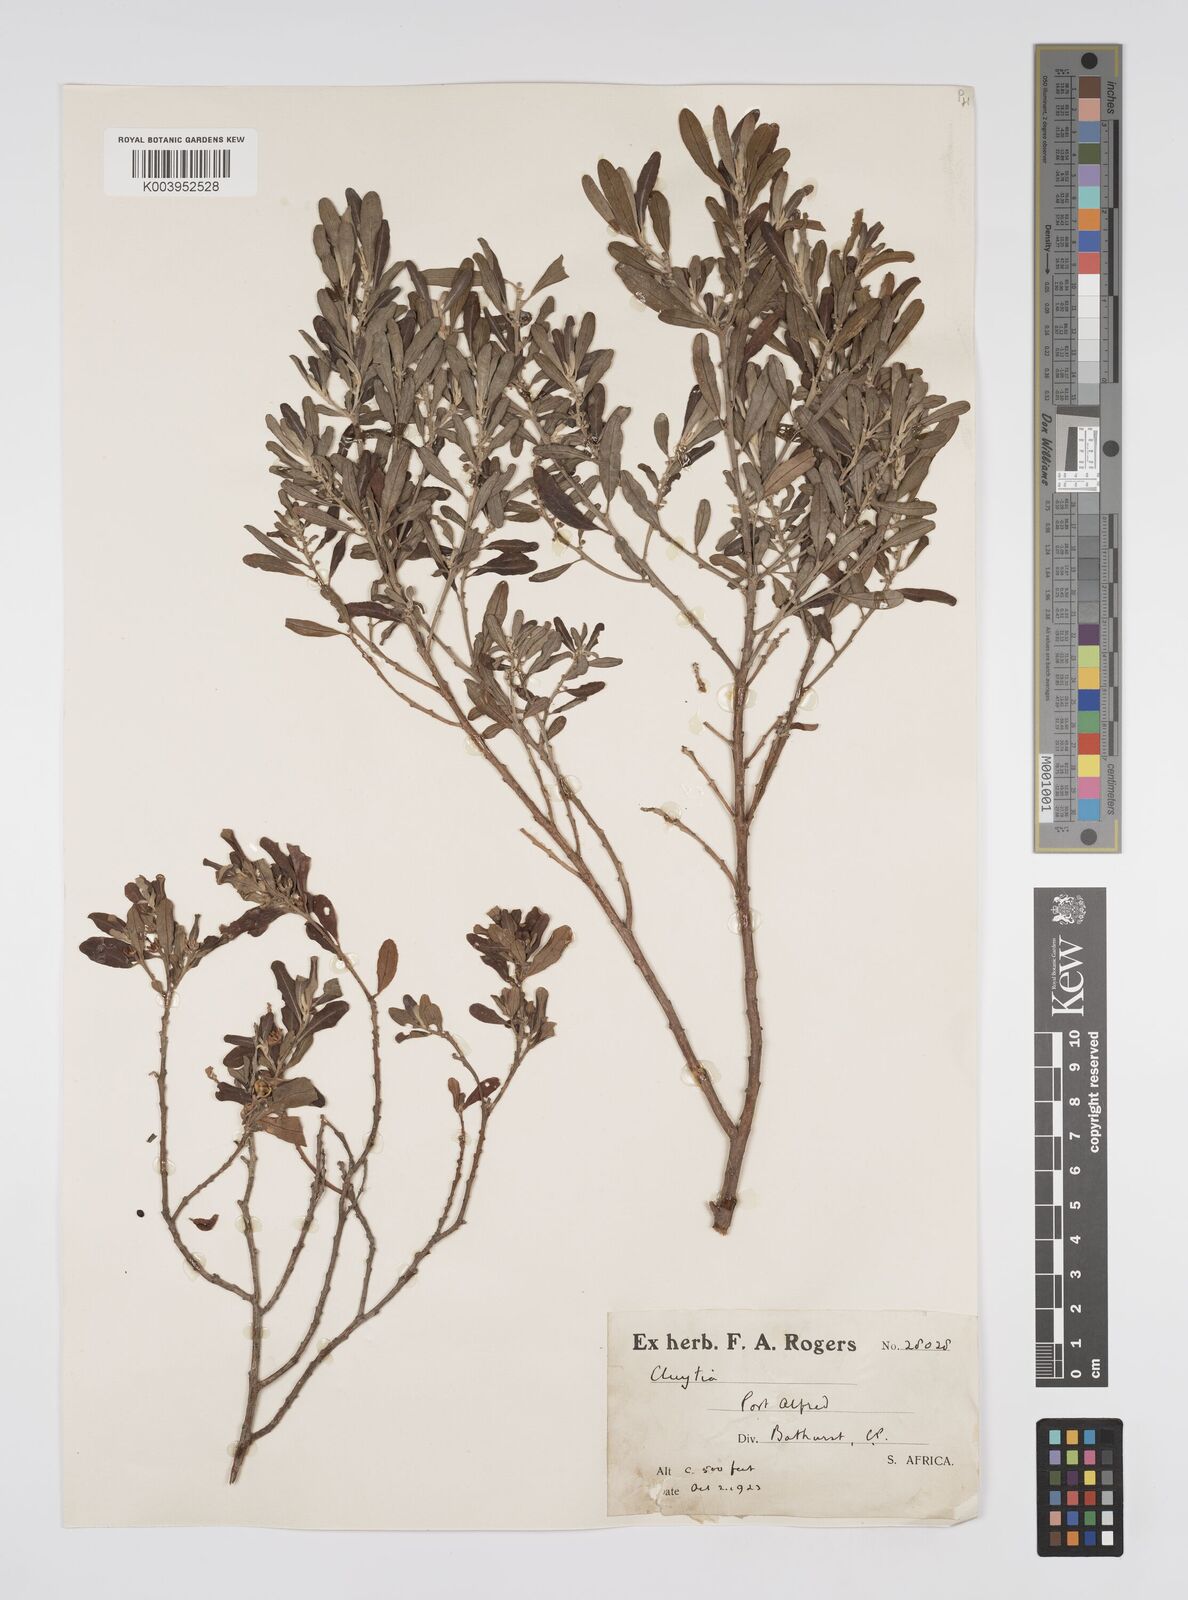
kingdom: Plantae
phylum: Tracheophyta
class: Magnoliopsida
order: Malpighiales
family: Peraceae
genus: Clutia
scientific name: Clutia
